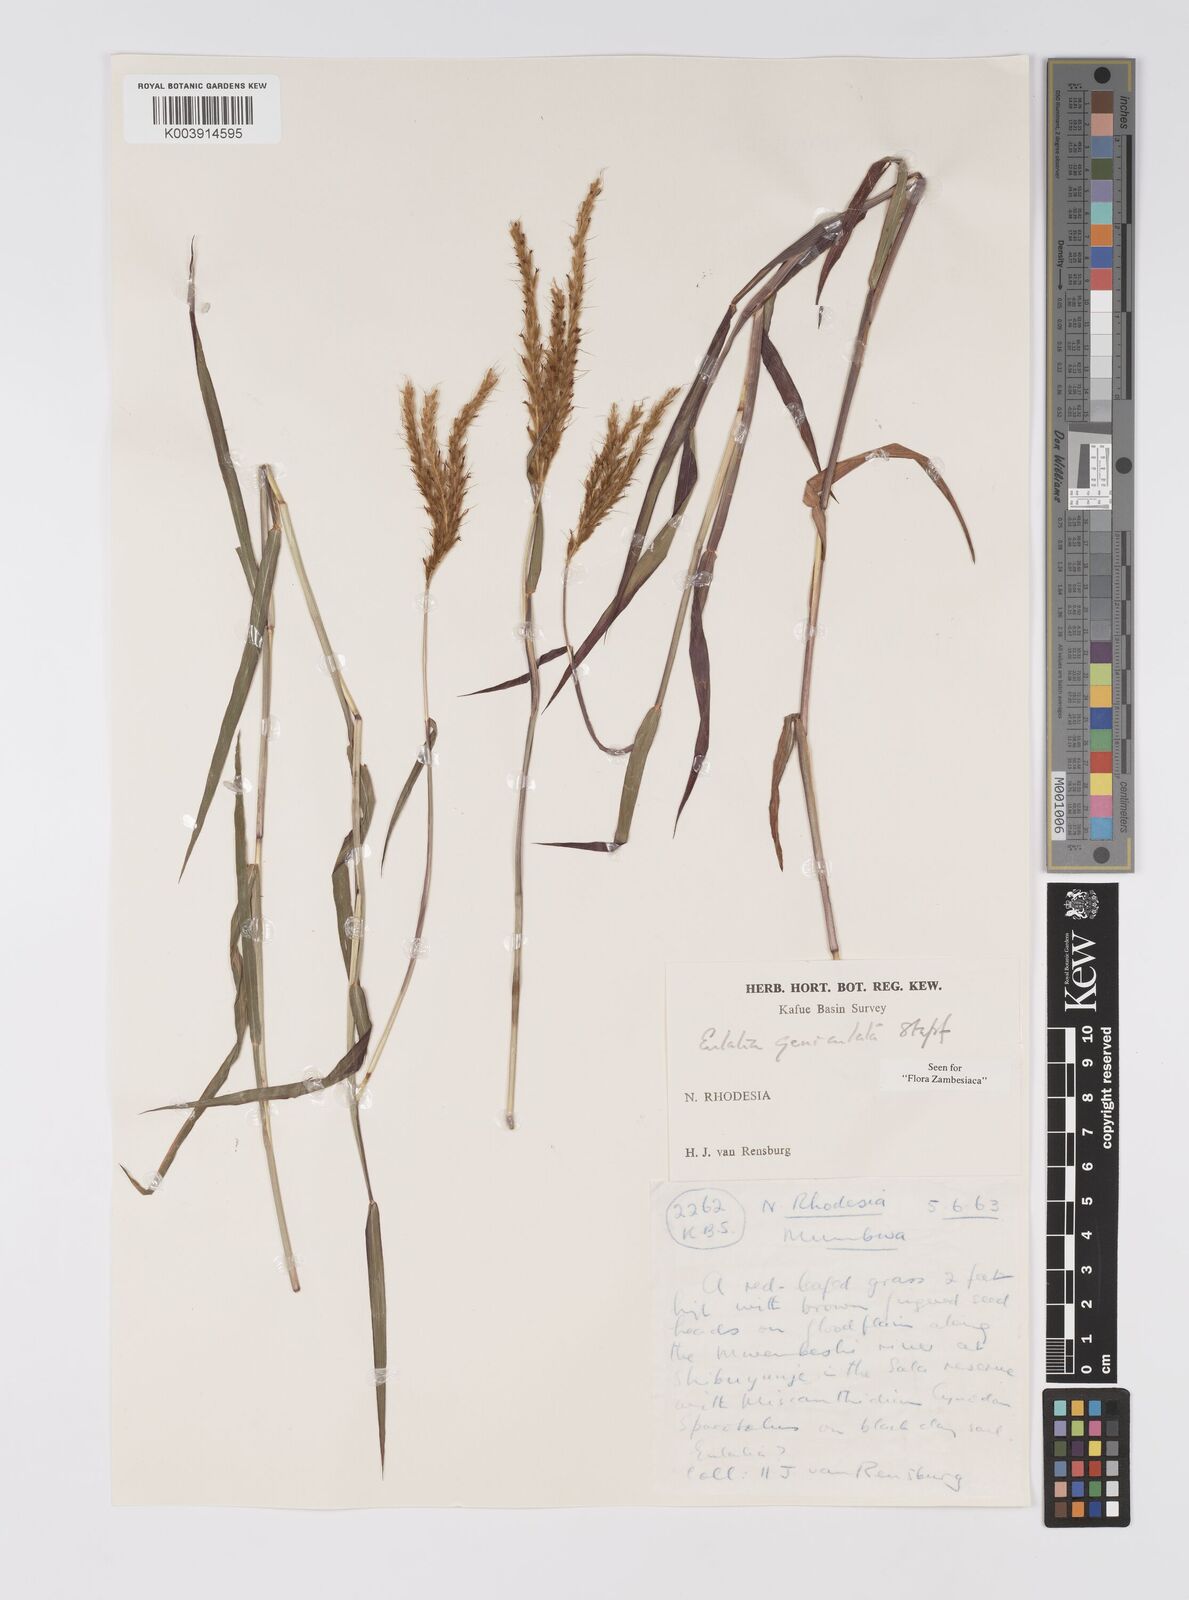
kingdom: Plantae
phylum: Tracheophyta
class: Liliopsida
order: Poales
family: Poaceae
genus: Eulalia
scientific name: Eulalia aurea
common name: Silky browntop
